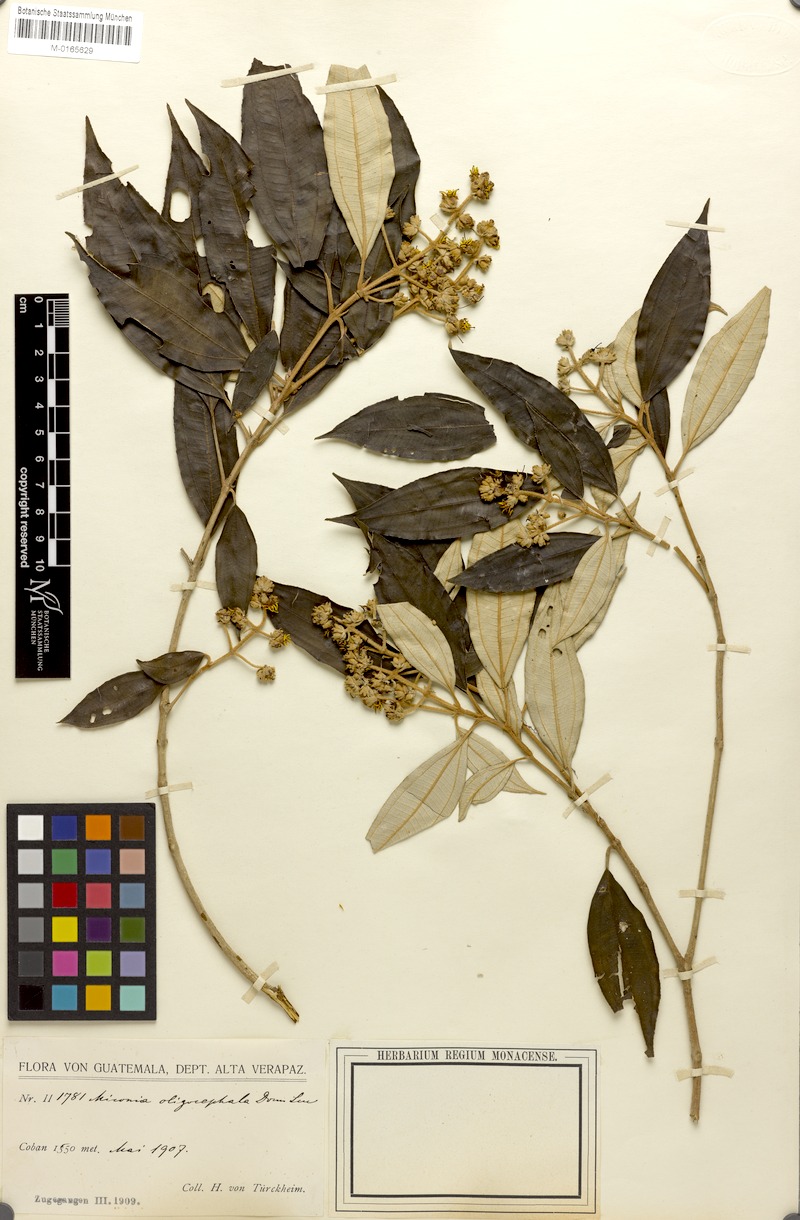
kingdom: Plantae
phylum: Tracheophyta
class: Magnoliopsida
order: Myrtales
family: Melastomataceae
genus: Miconia
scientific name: Miconia oligocephala
